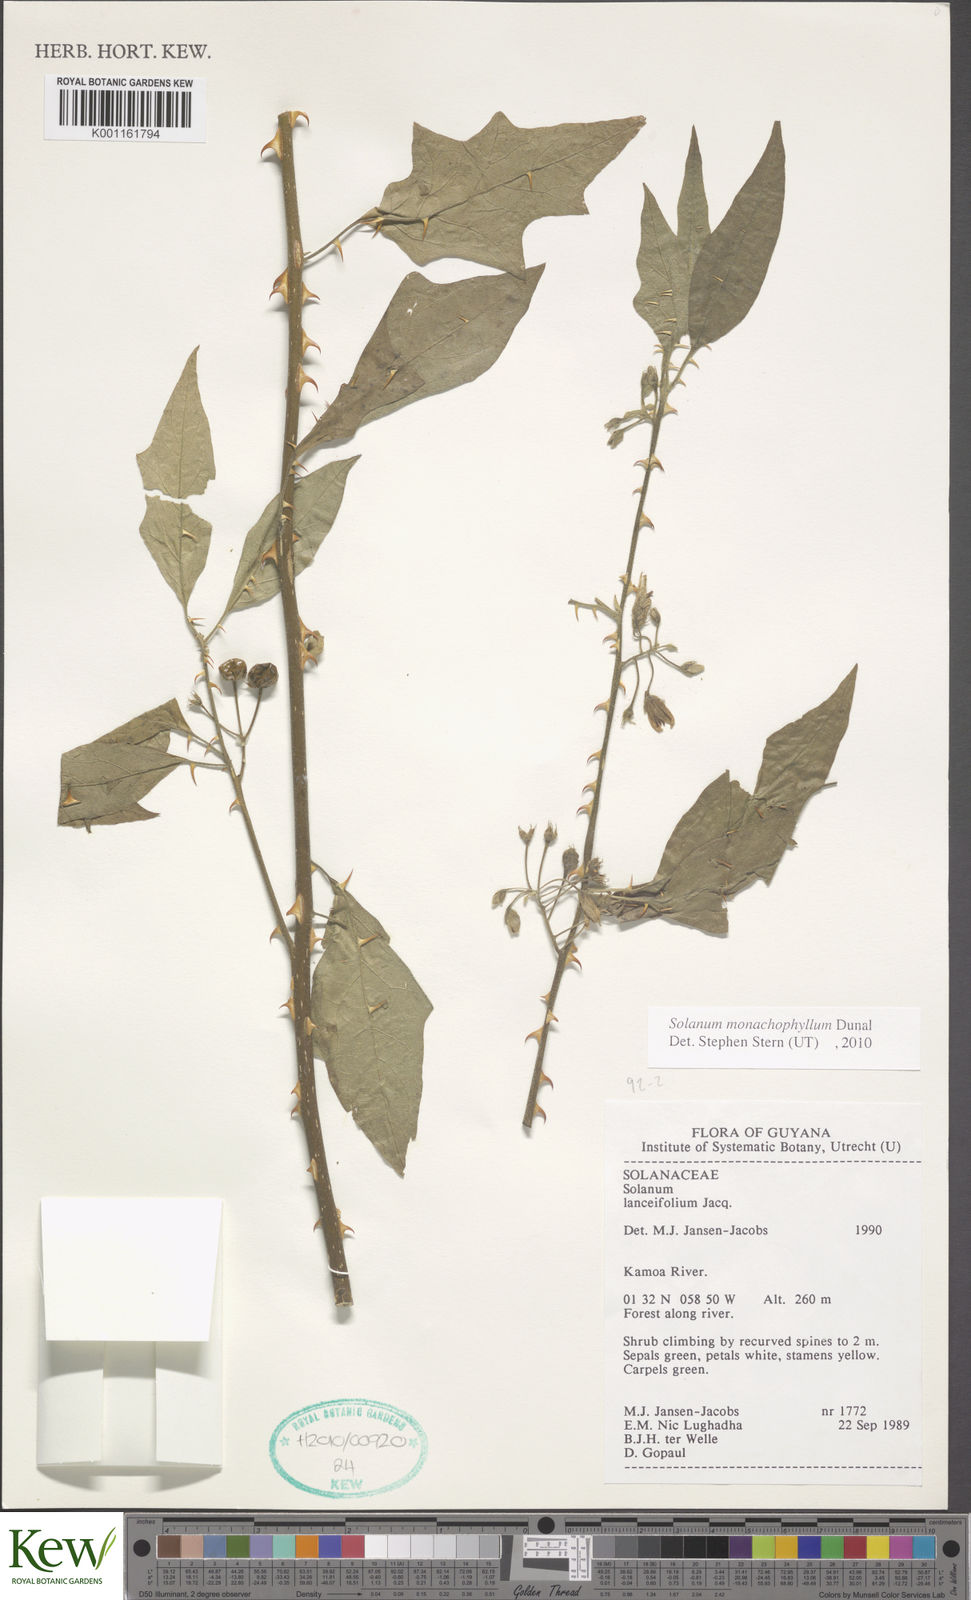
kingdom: Plantae
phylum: Tracheophyta
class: Magnoliopsida
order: Solanales
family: Solanaceae
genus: Solanum
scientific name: Solanum monachophyllum
